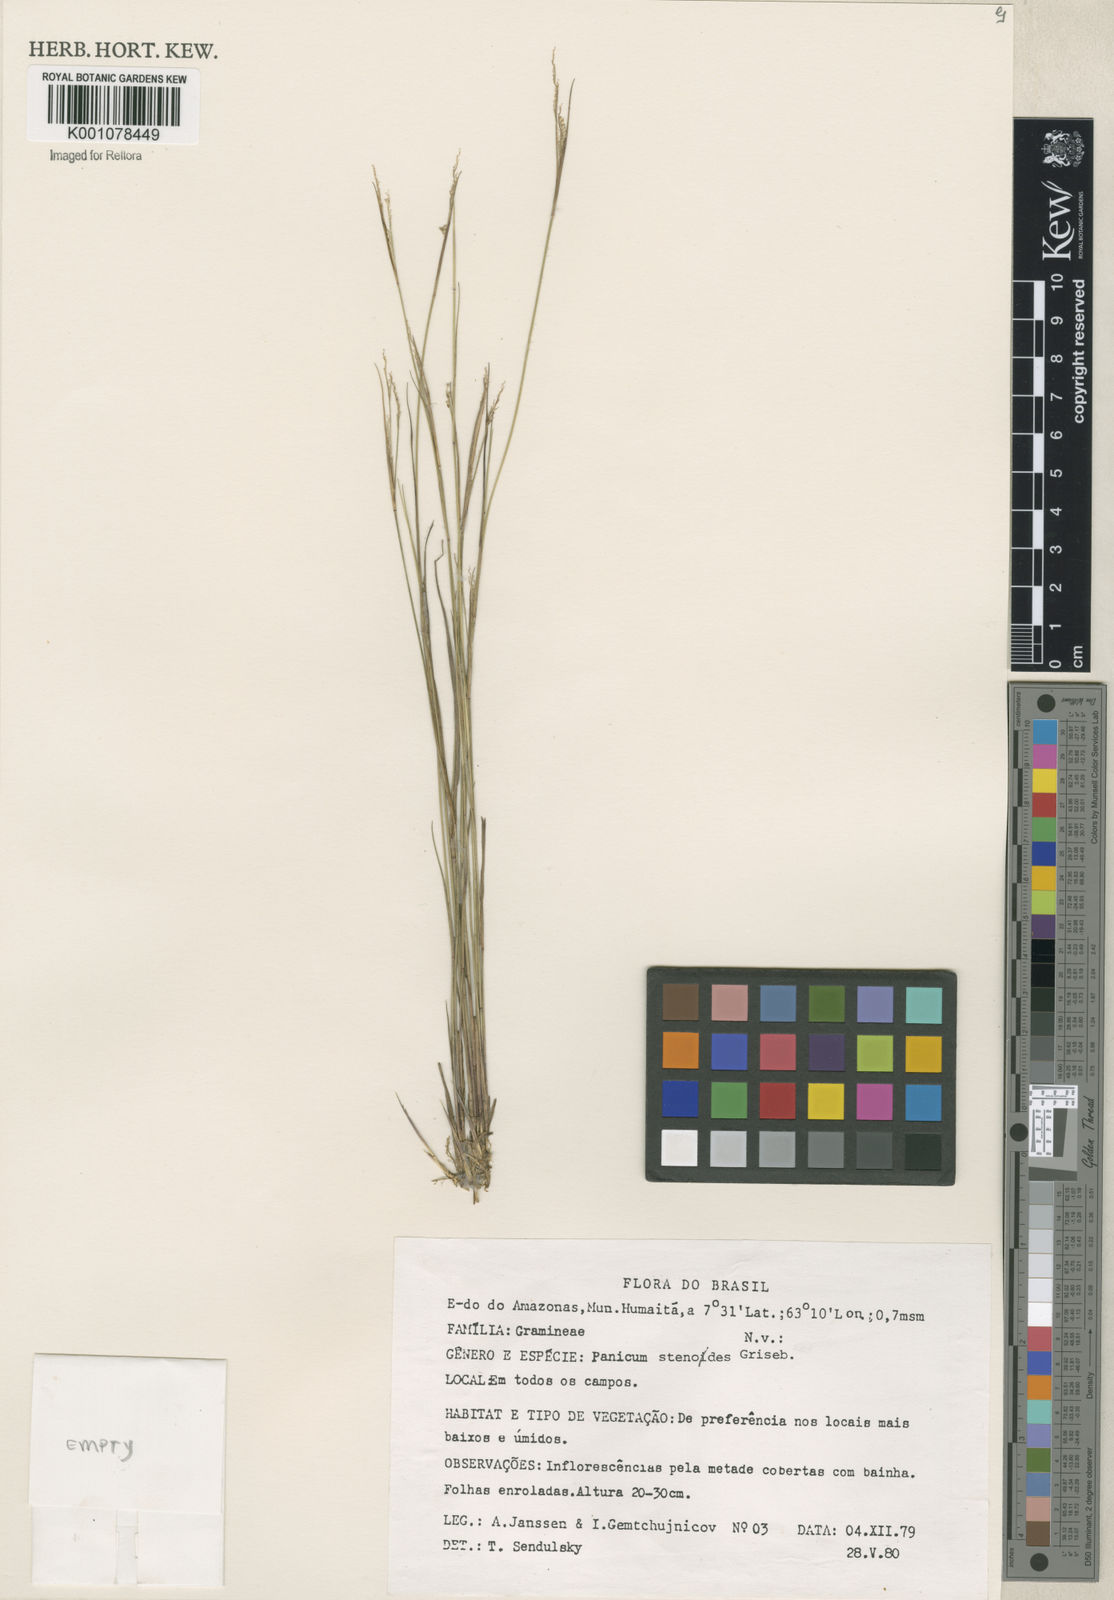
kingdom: Plantae
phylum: Tracheophyta
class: Liliopsida
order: Poales
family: Poaceae
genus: Coleataenia
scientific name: Coleataenia stenodes
